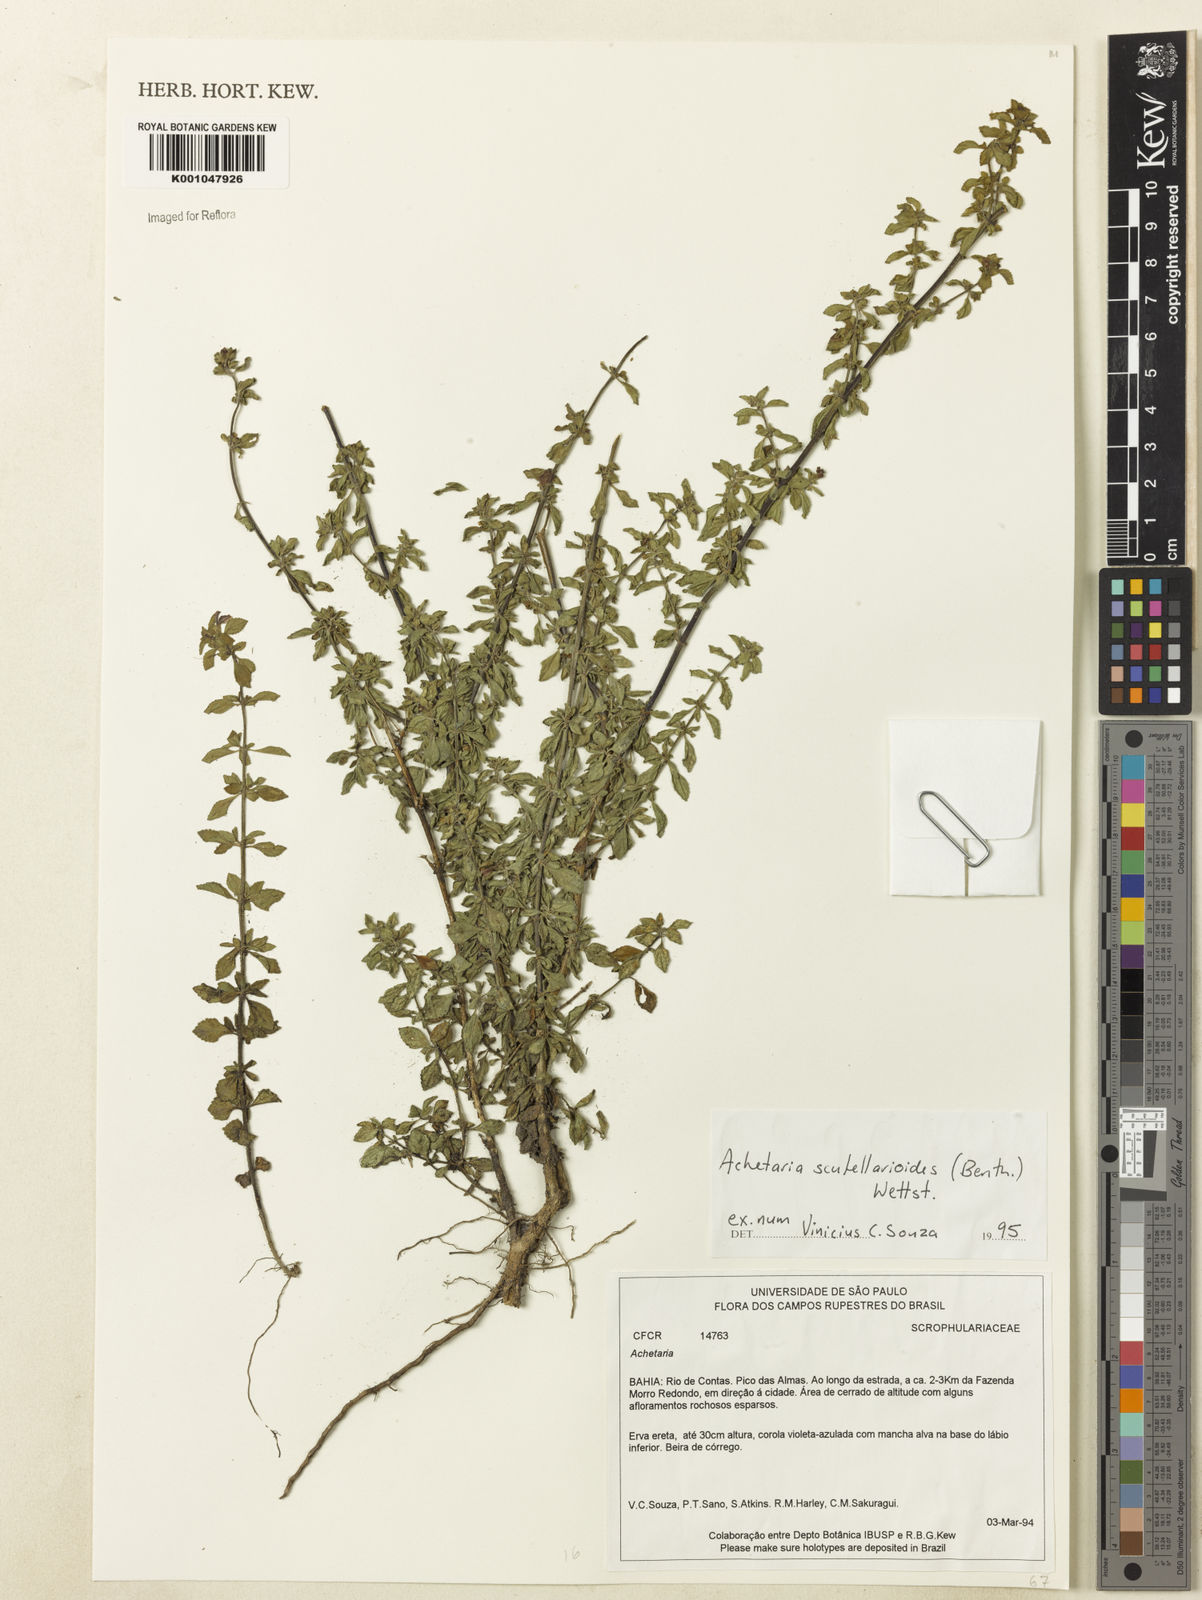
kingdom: Plantae
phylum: Tracheophyta
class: Magnoliopsida
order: Lamiales
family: Plantaginaceae
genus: Matourea
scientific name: Matourea scutellarioides
